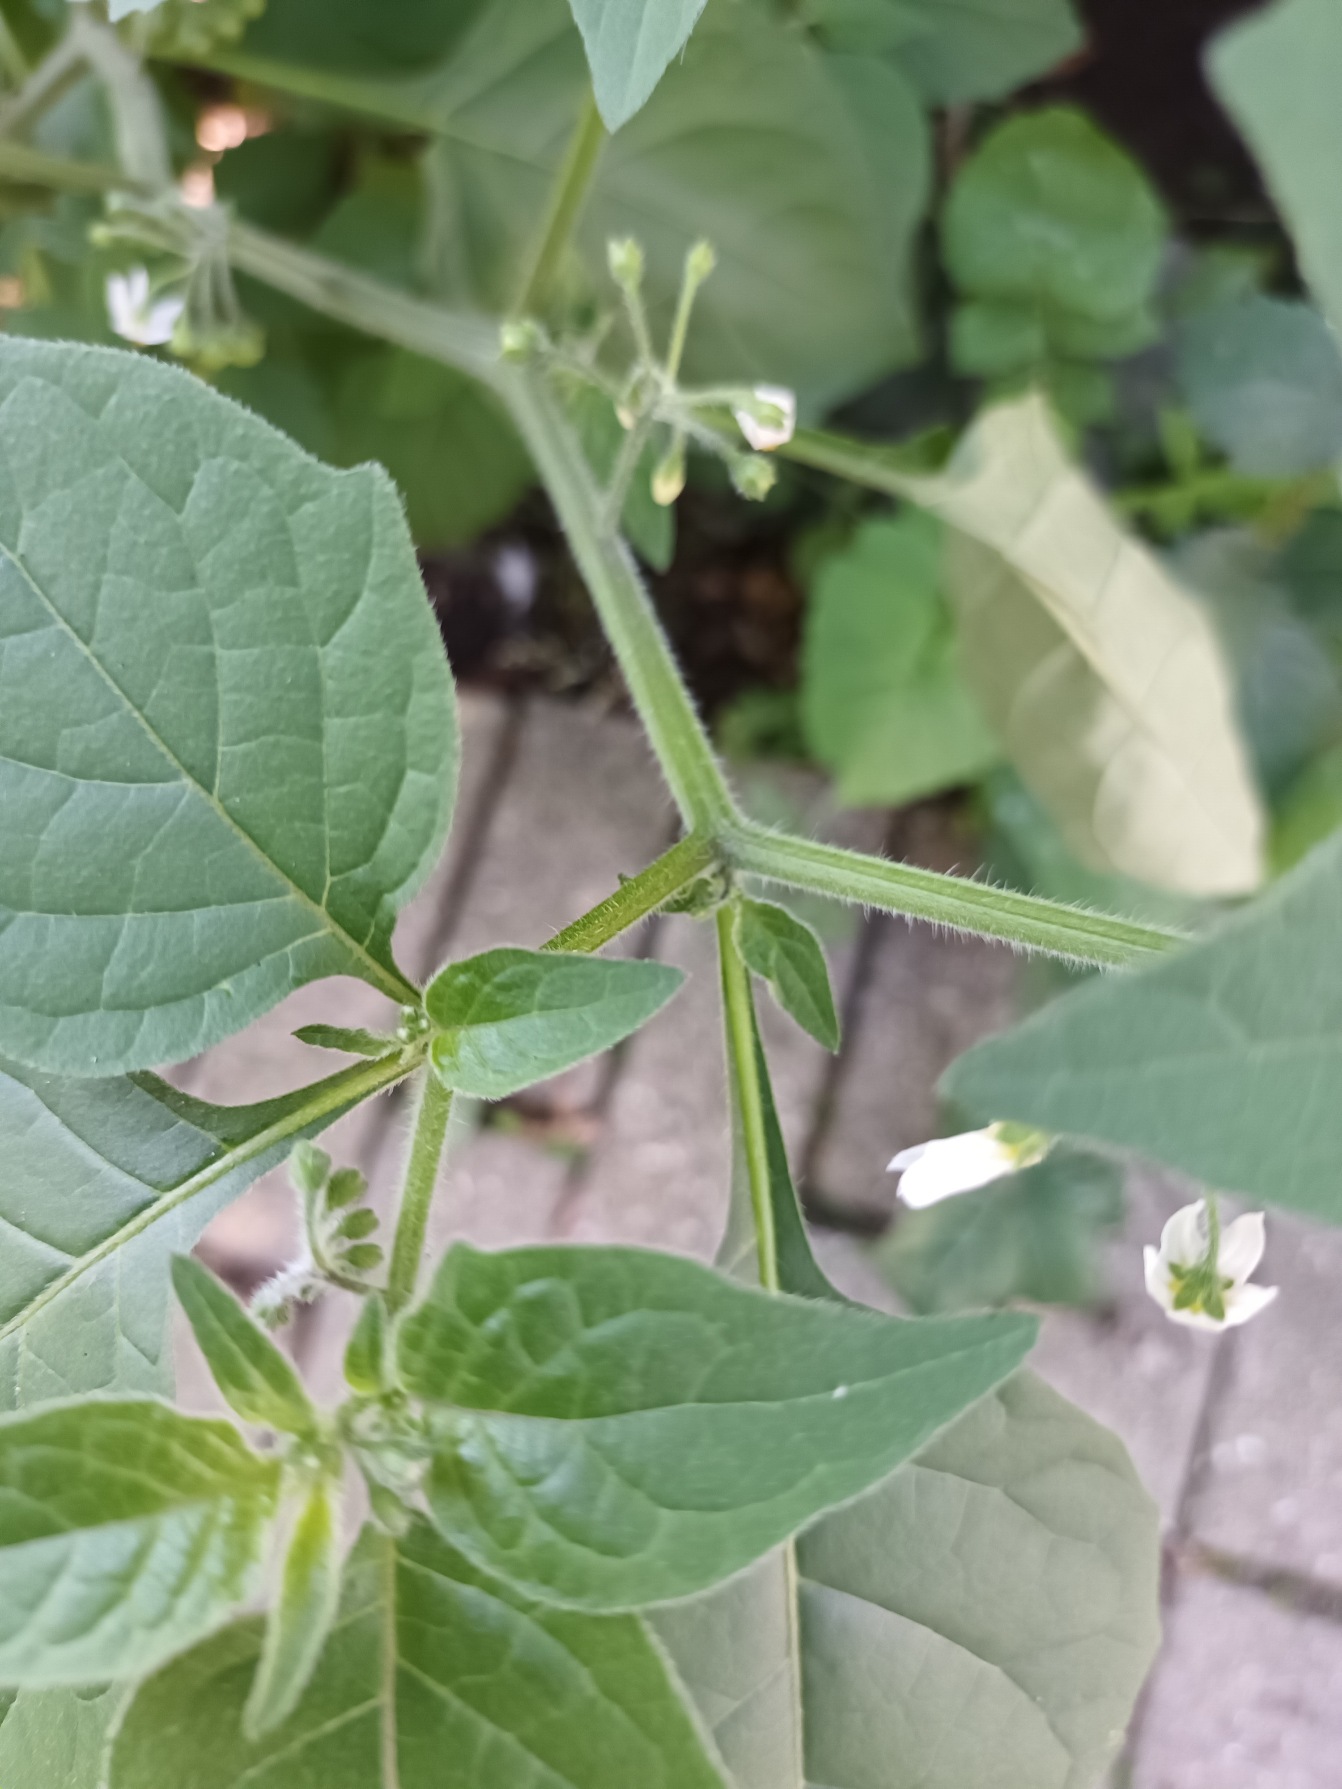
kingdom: Plantae
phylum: Tracheophyta
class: Magnoliopsida
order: Solanales
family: Solanaceae
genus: Solanum
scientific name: Solanum decipiens
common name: Kirtel-natskygge
